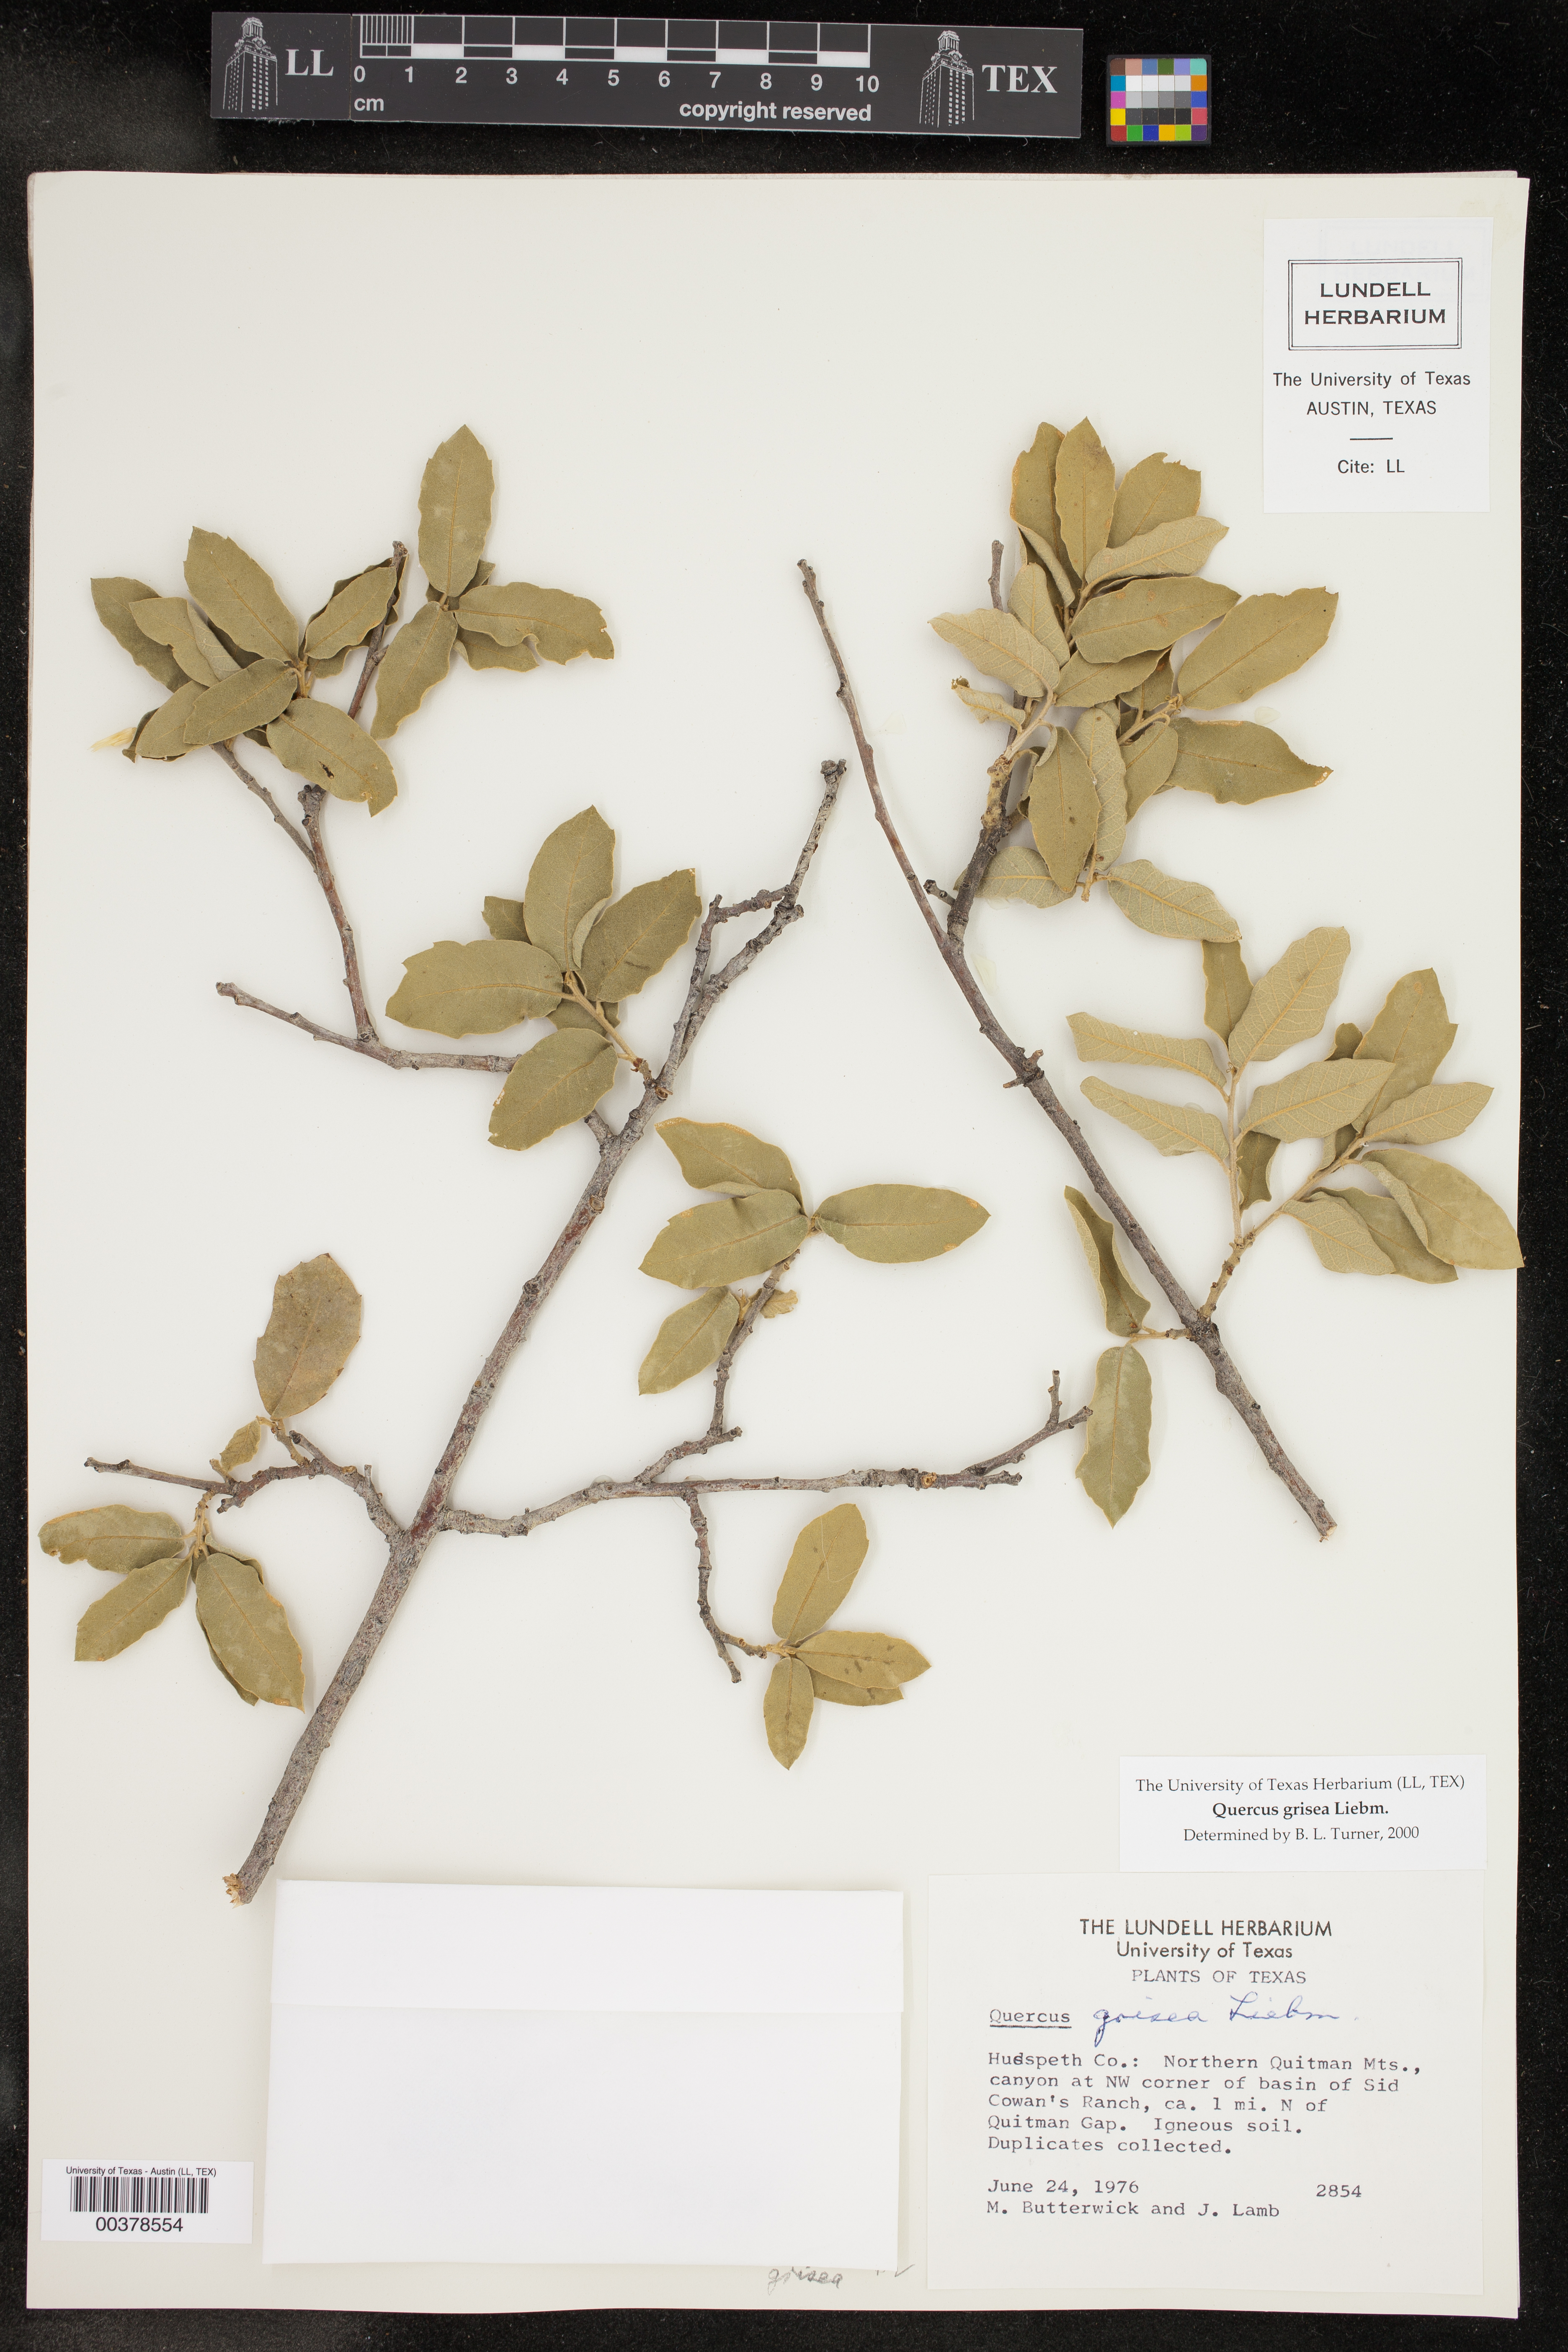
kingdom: Plantae
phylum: Tracheophyta
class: Magnoliopsida
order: Fagales
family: Fagaceae
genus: Quercus
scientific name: Quercus grisea
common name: Gray oak
